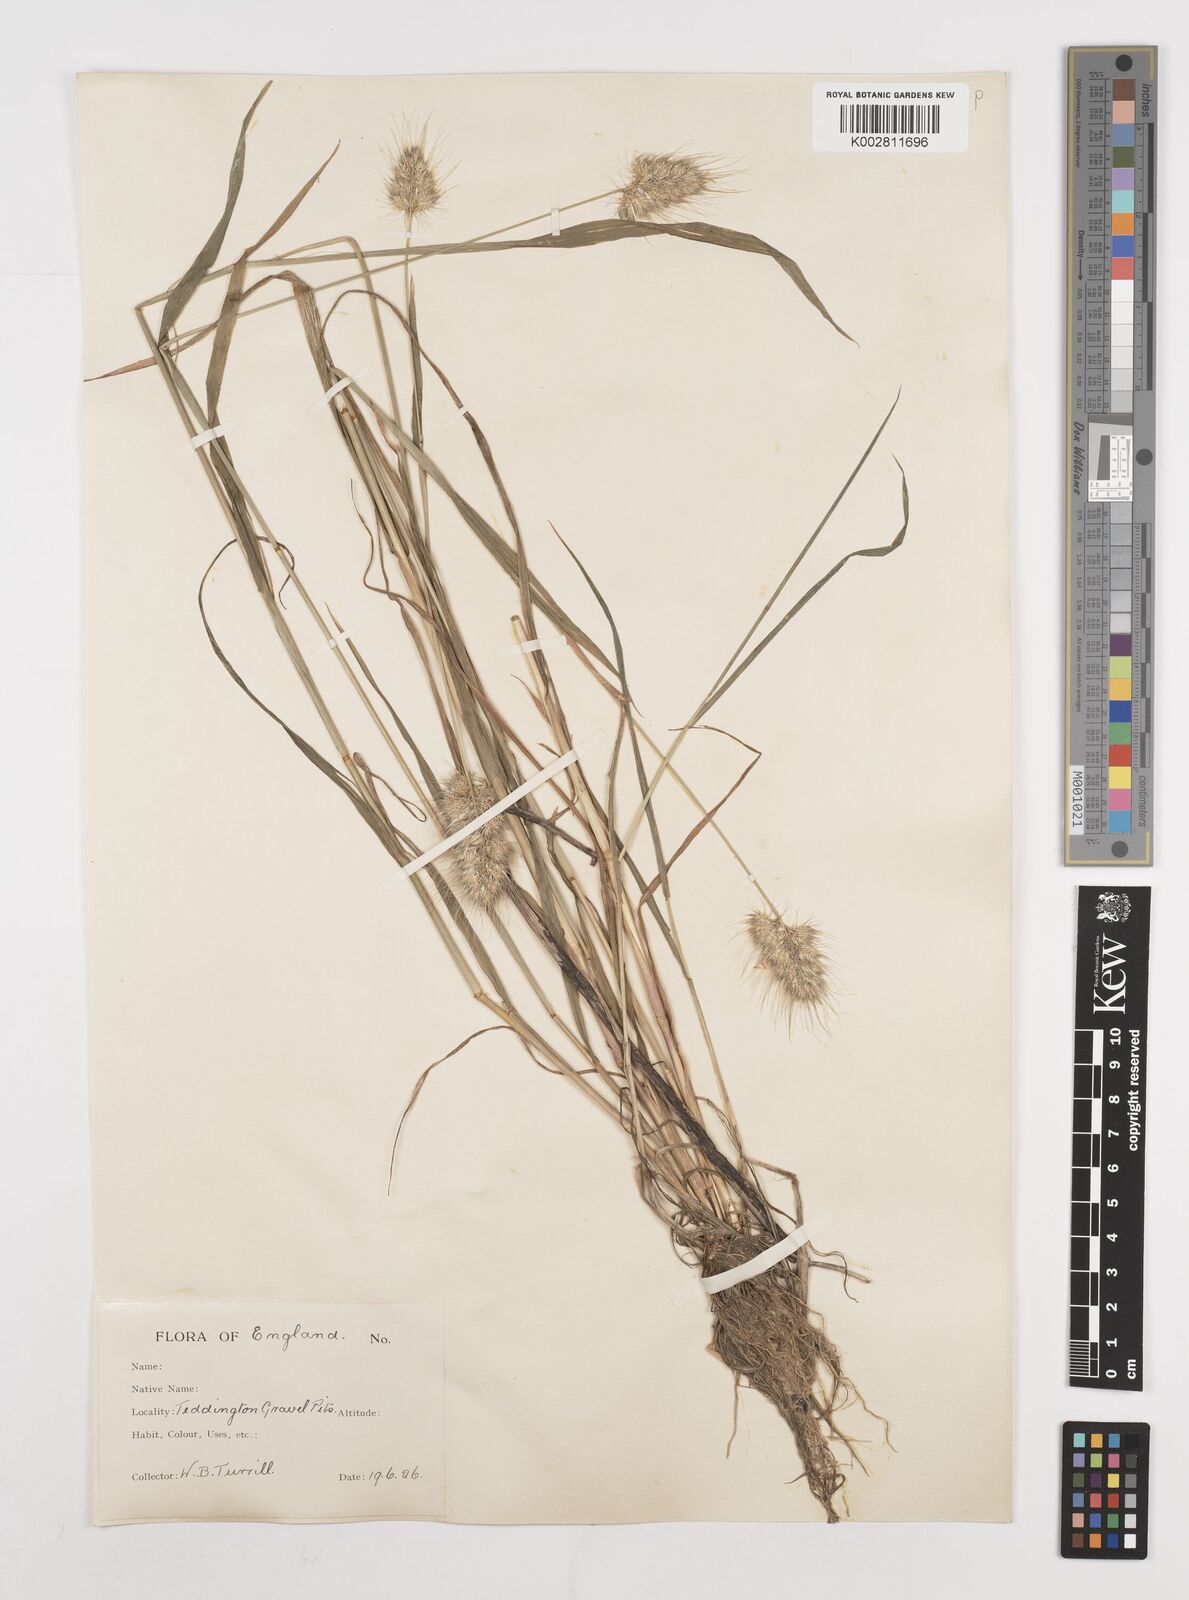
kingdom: Plantae
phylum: Tracheophyta
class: Liliopsida
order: Poales
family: Poaceae
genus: Cynosurus
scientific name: Cynosurus echinatus
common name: Rough dog's-tail
